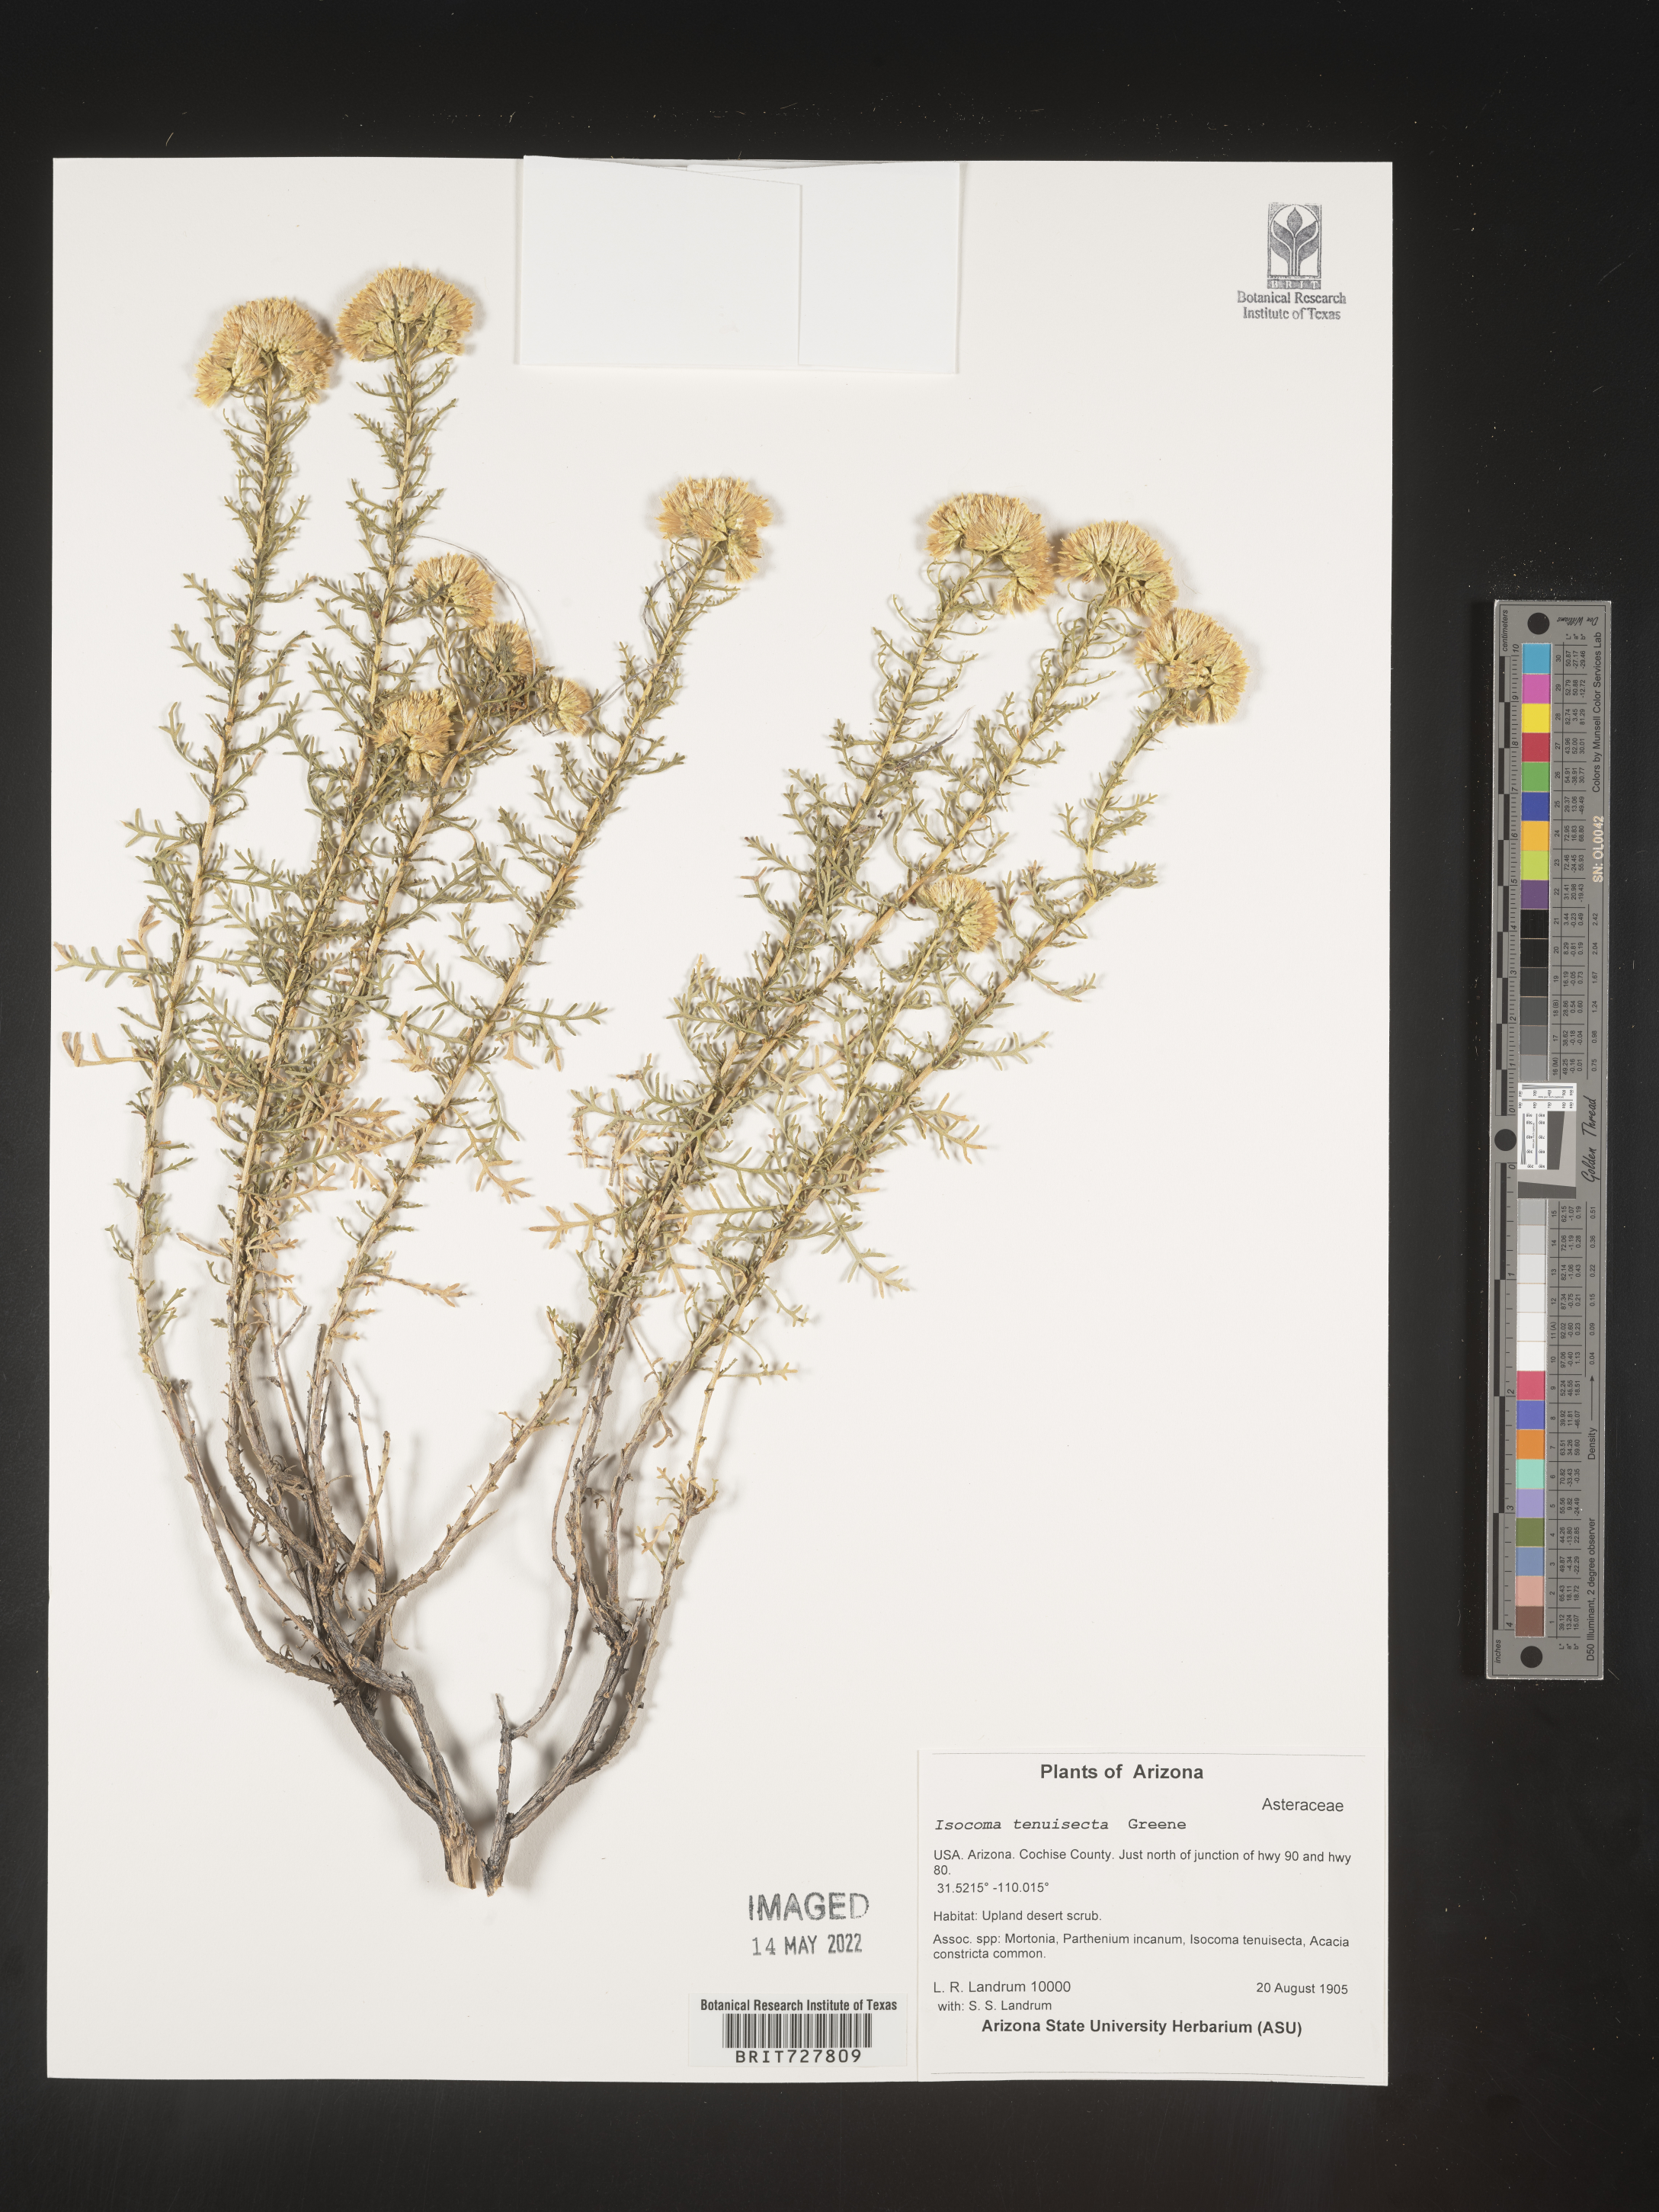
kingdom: Plantae
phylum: Tracheophyta
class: Magnoliopsida
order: Asterales
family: Asteraceae
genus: Isocoma
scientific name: Isocoma tenuisecta
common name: Burroweed
